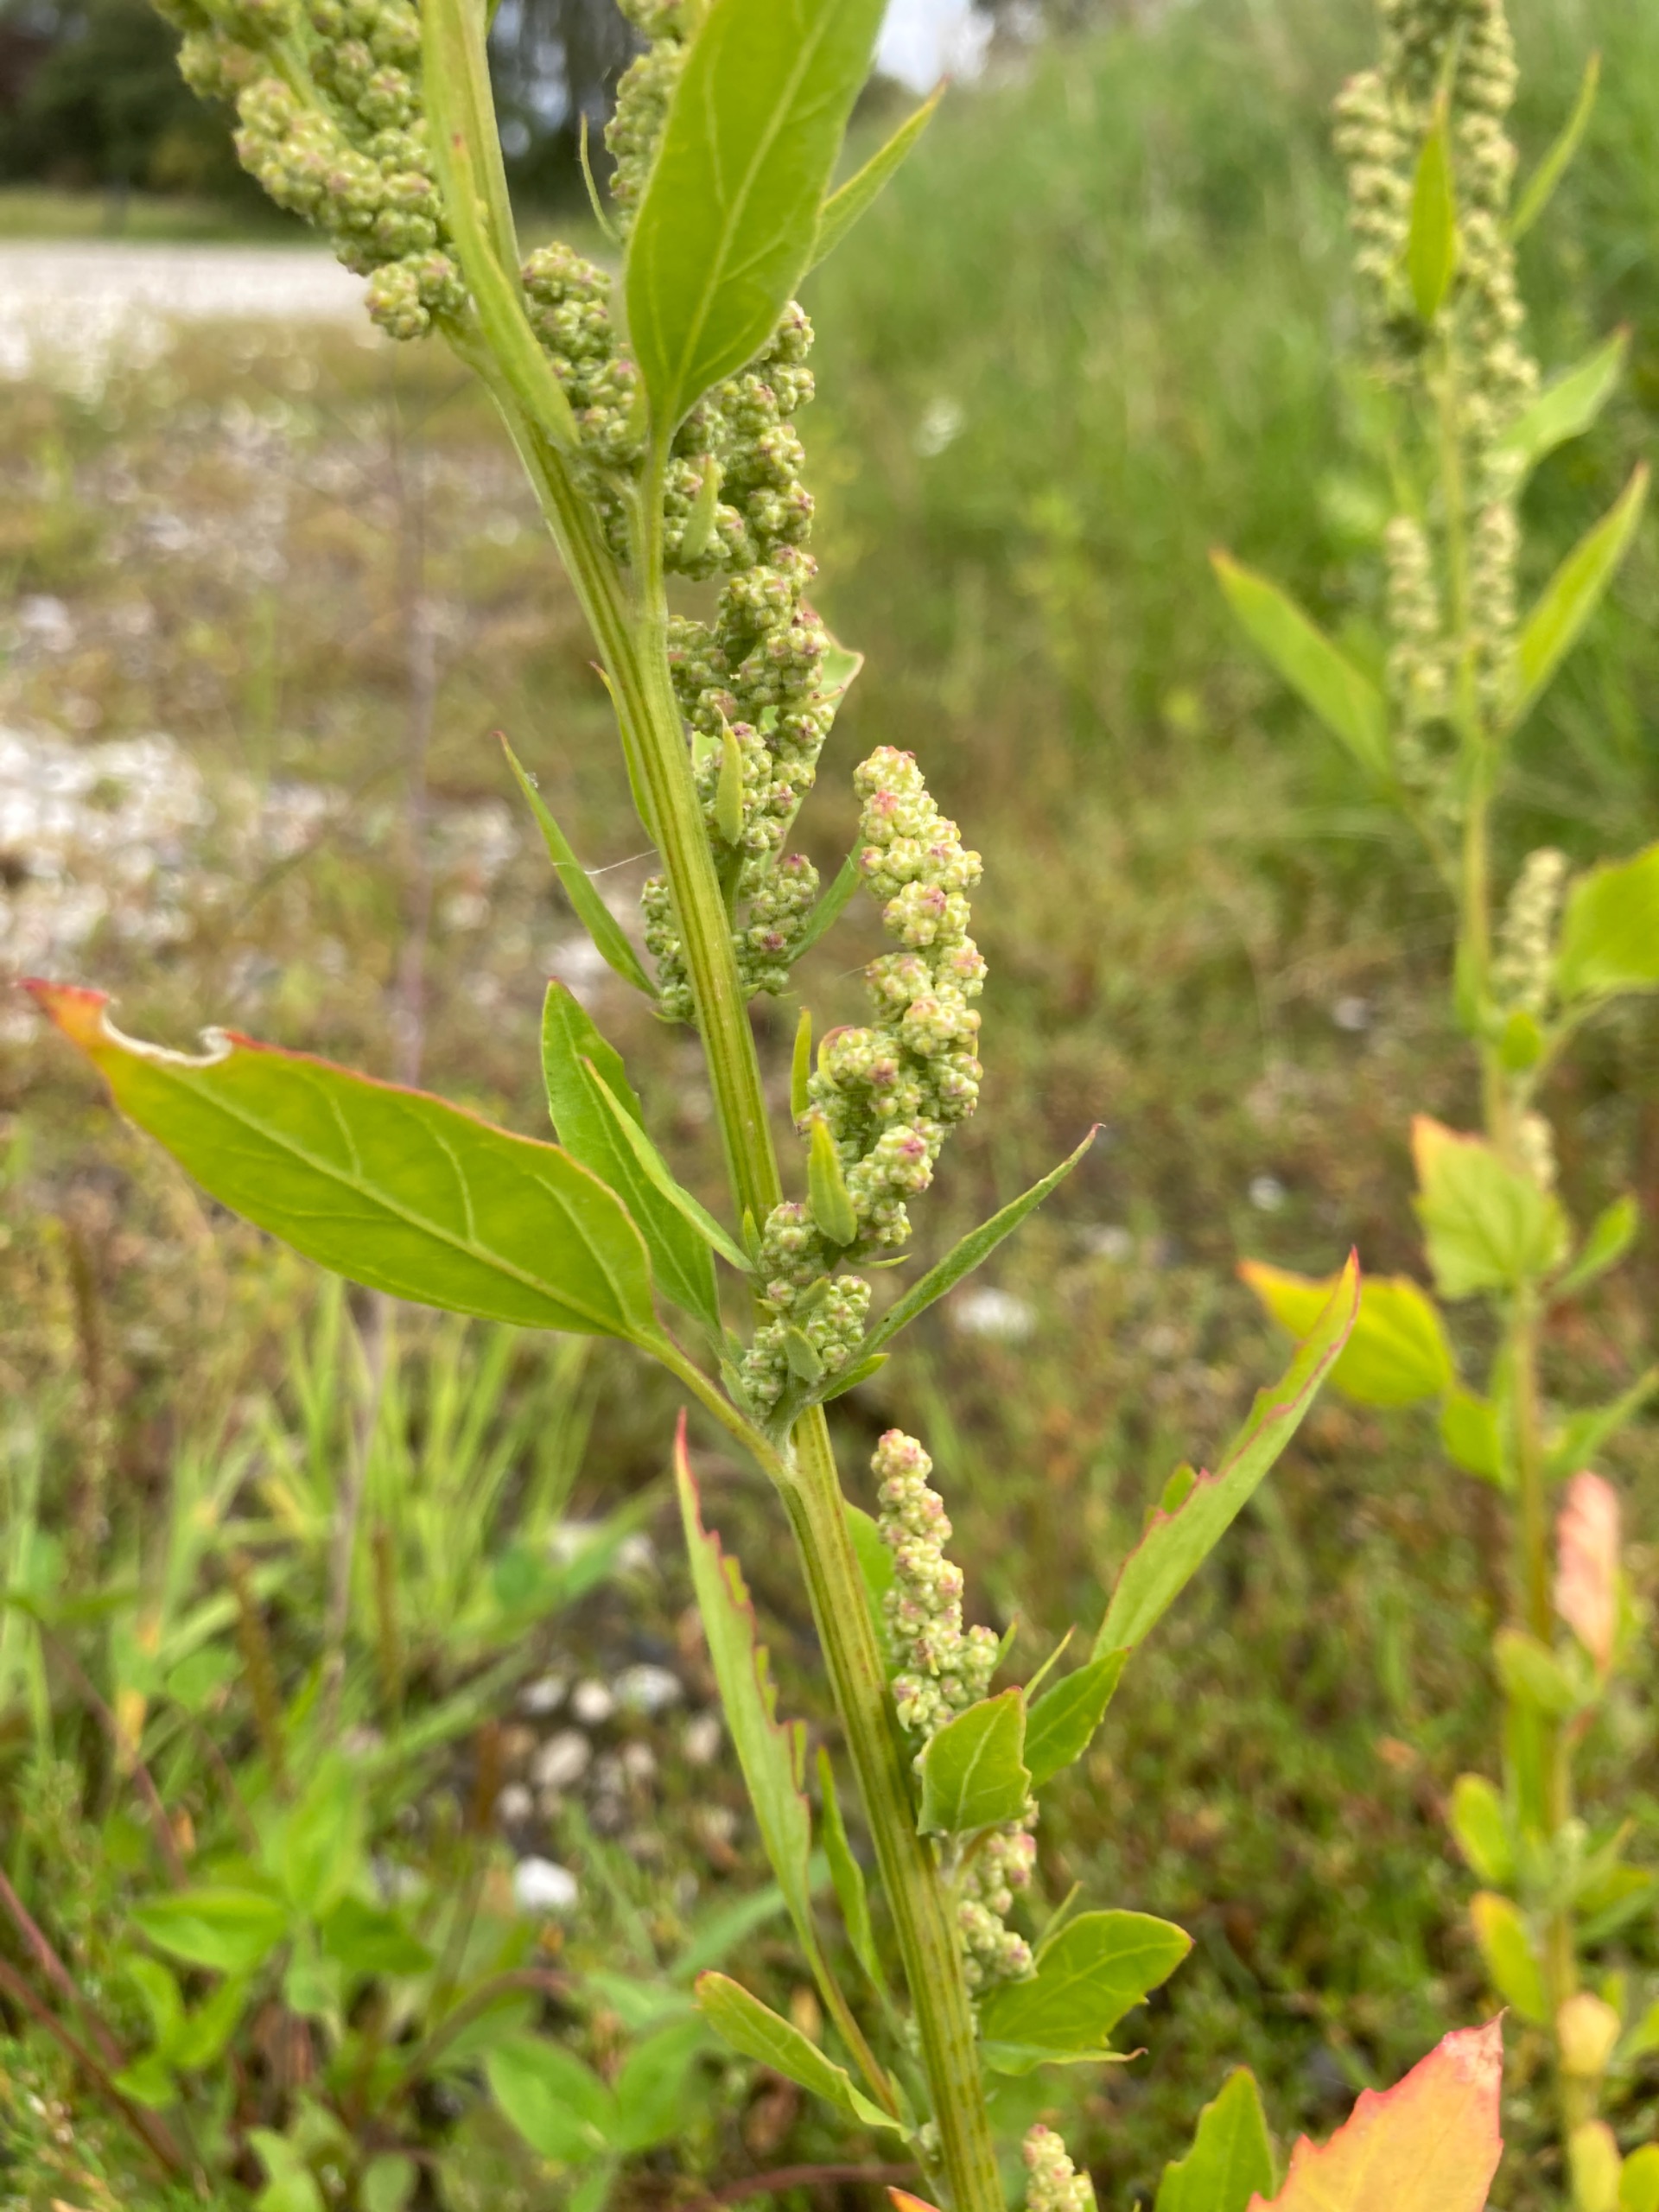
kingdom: Plantae
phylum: Tracheophyta
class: Magnoliopsida
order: Caryophyllales
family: Amaranthaceae
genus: Chenopodium
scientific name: Chenopodium album
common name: Hvidmelet gåsefod
